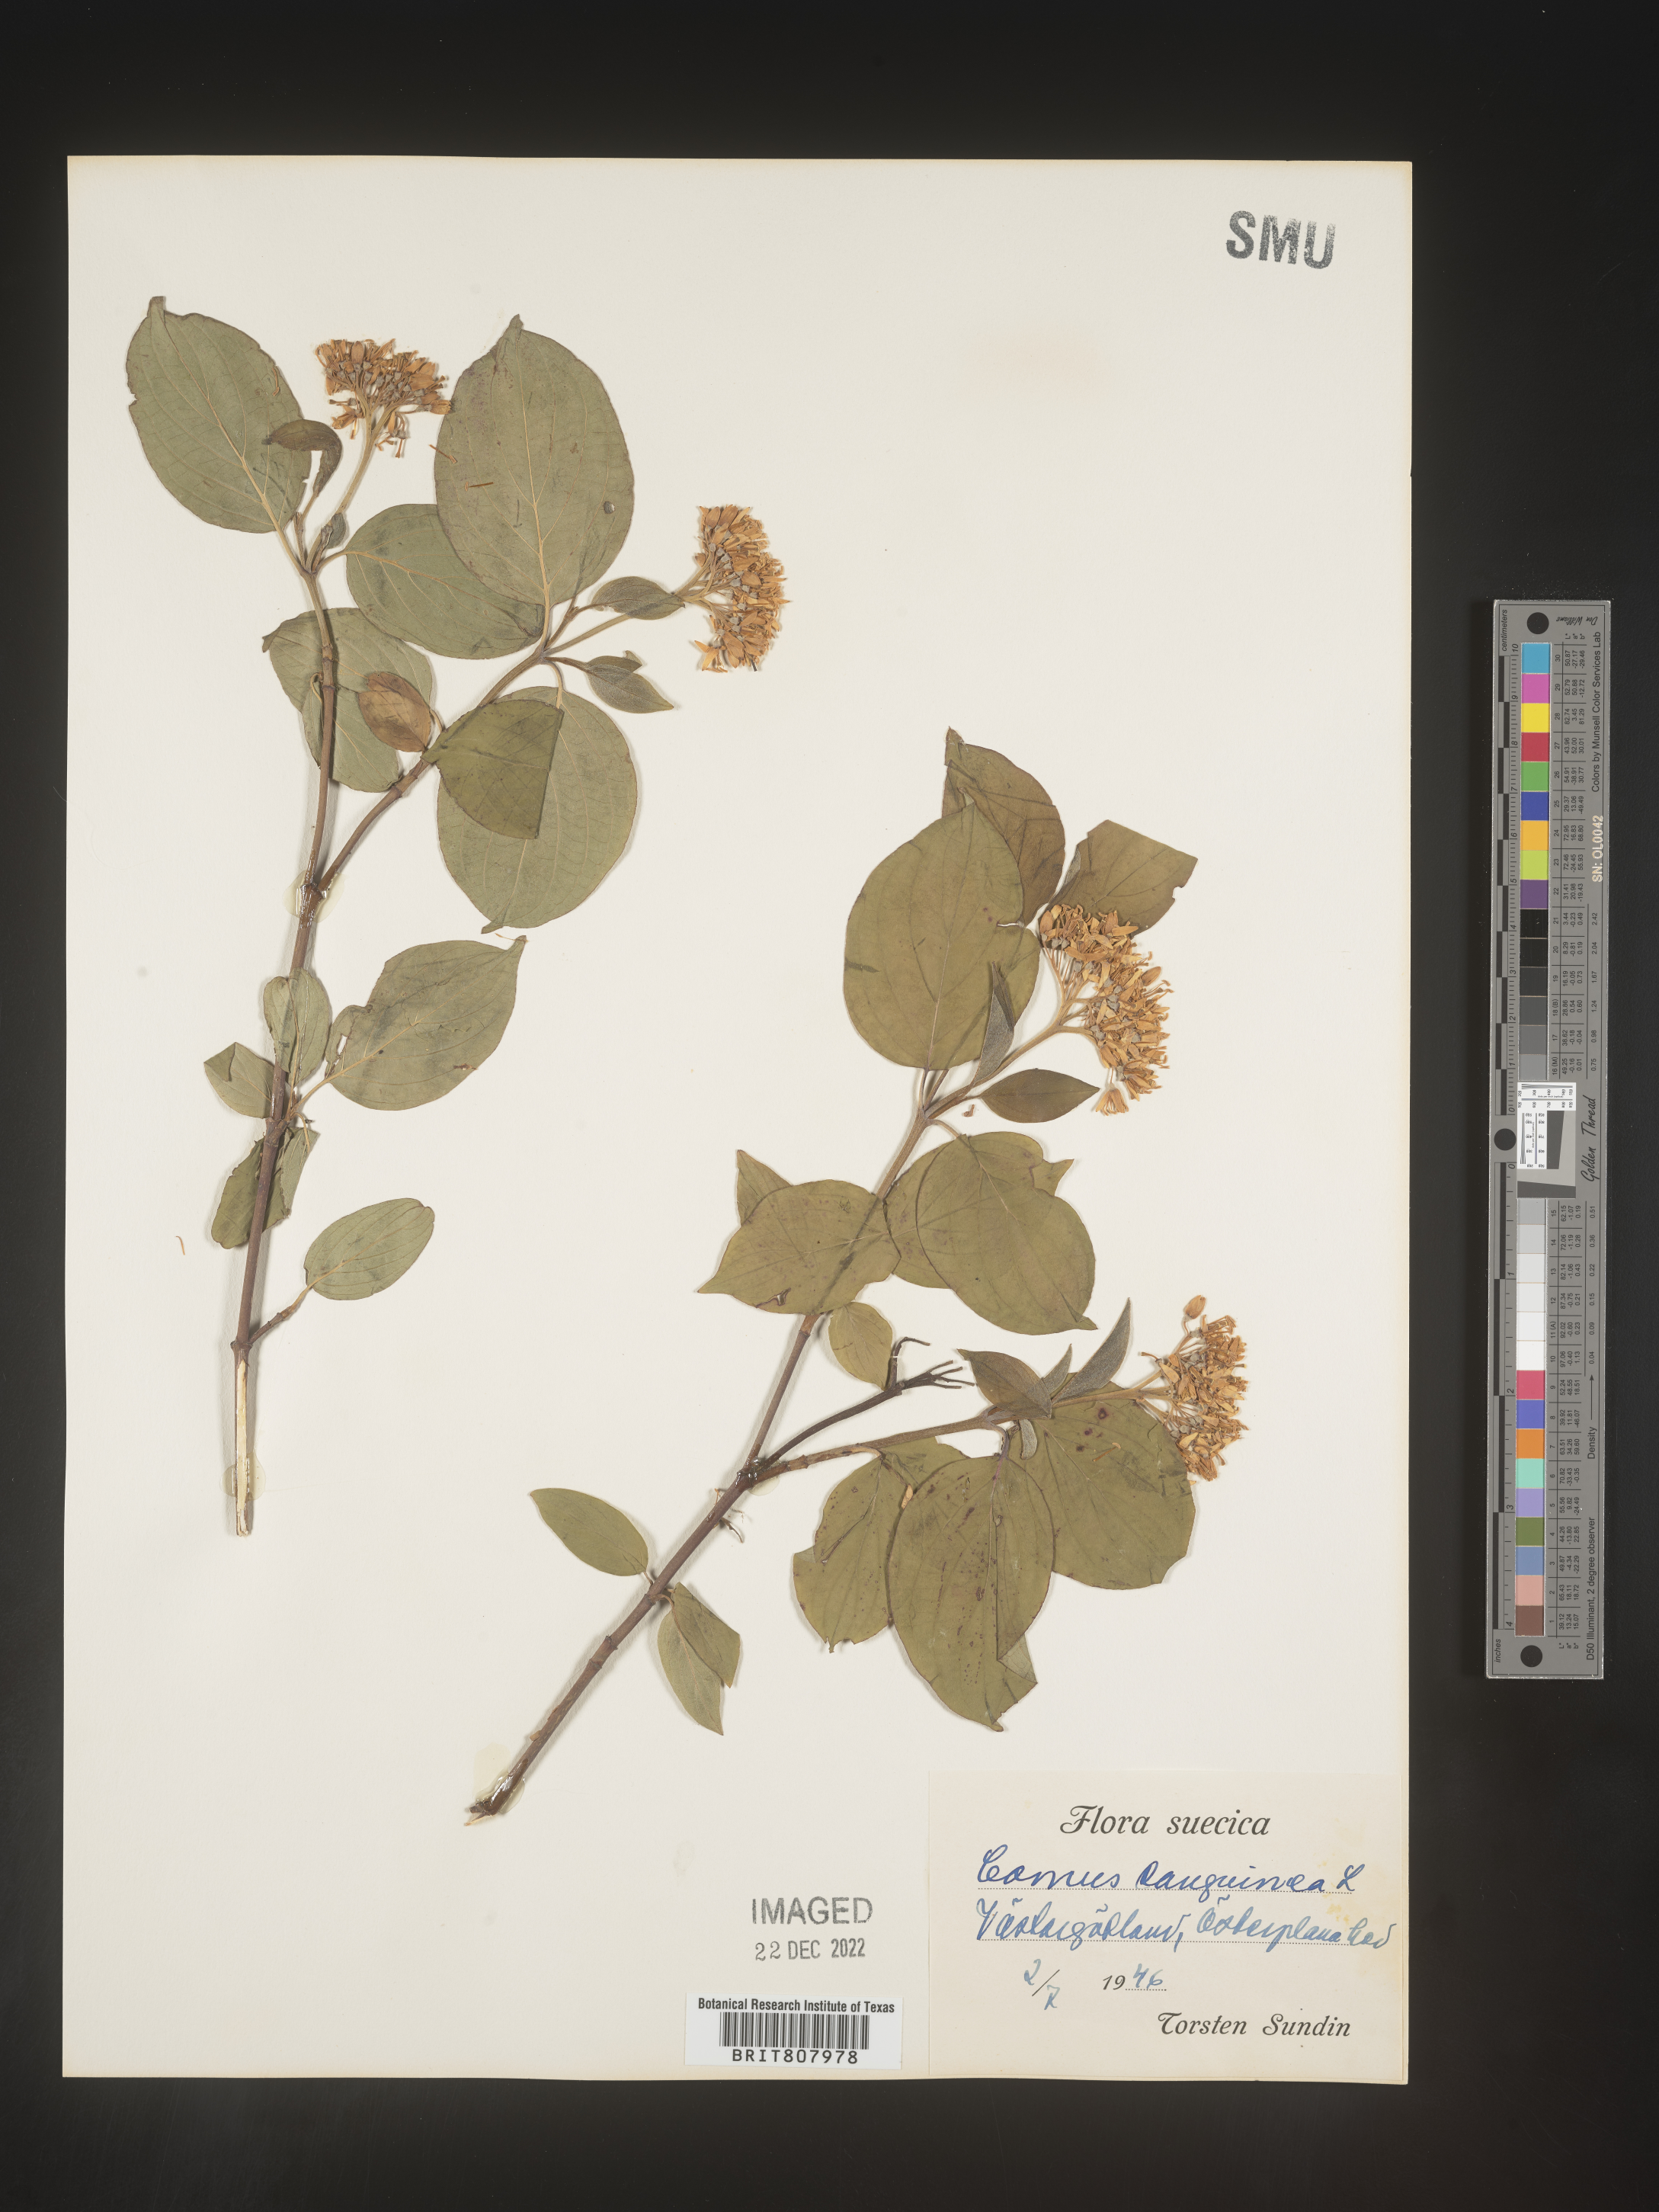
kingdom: Plantae
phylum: Tracheophyta
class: Magnoliopsida
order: Cornales
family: Cornaceae
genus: Cornus
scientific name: Cornus
